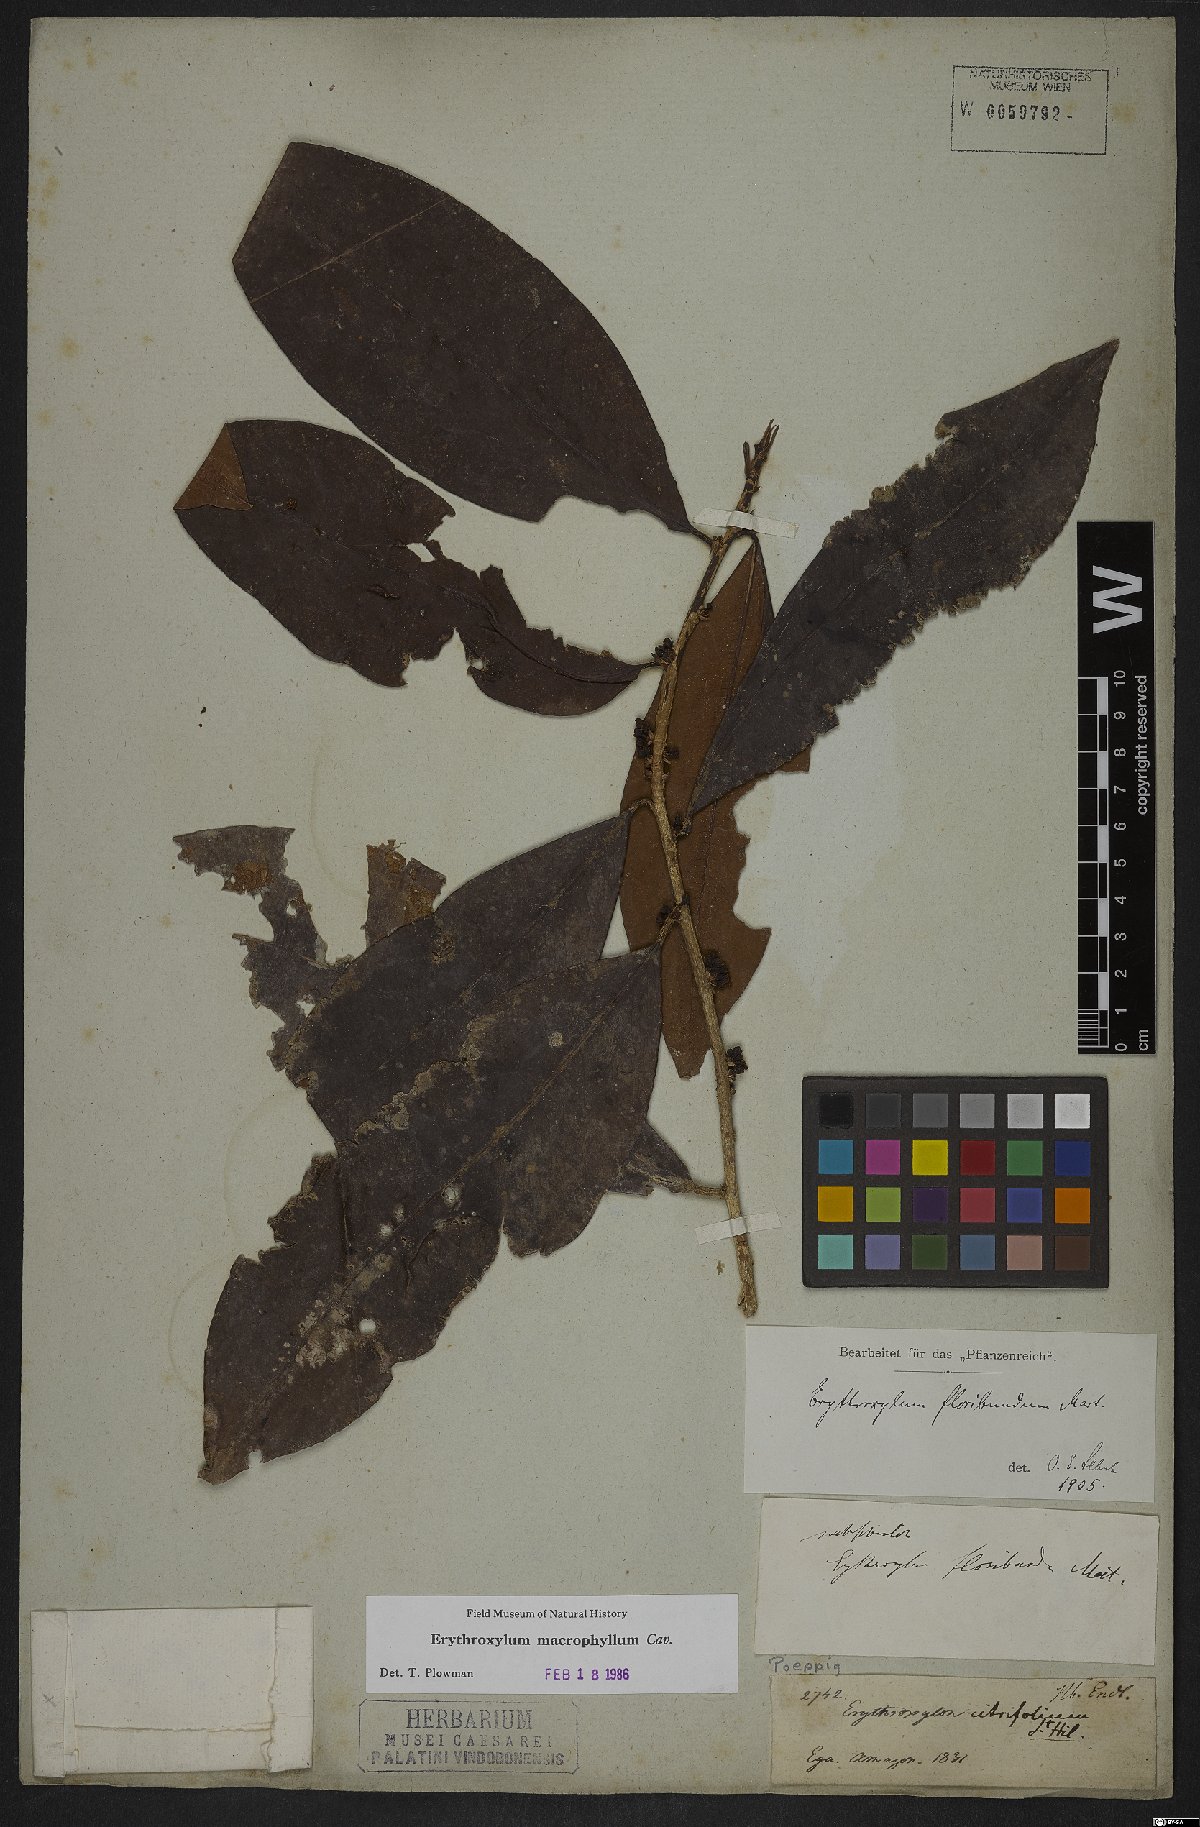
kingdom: Plantae
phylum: Tracheophyta
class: Magnoliopsida
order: Malpighiales
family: Erythroxylaceae
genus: Erythroxylum
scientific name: Erythroxylum macrophyllum
